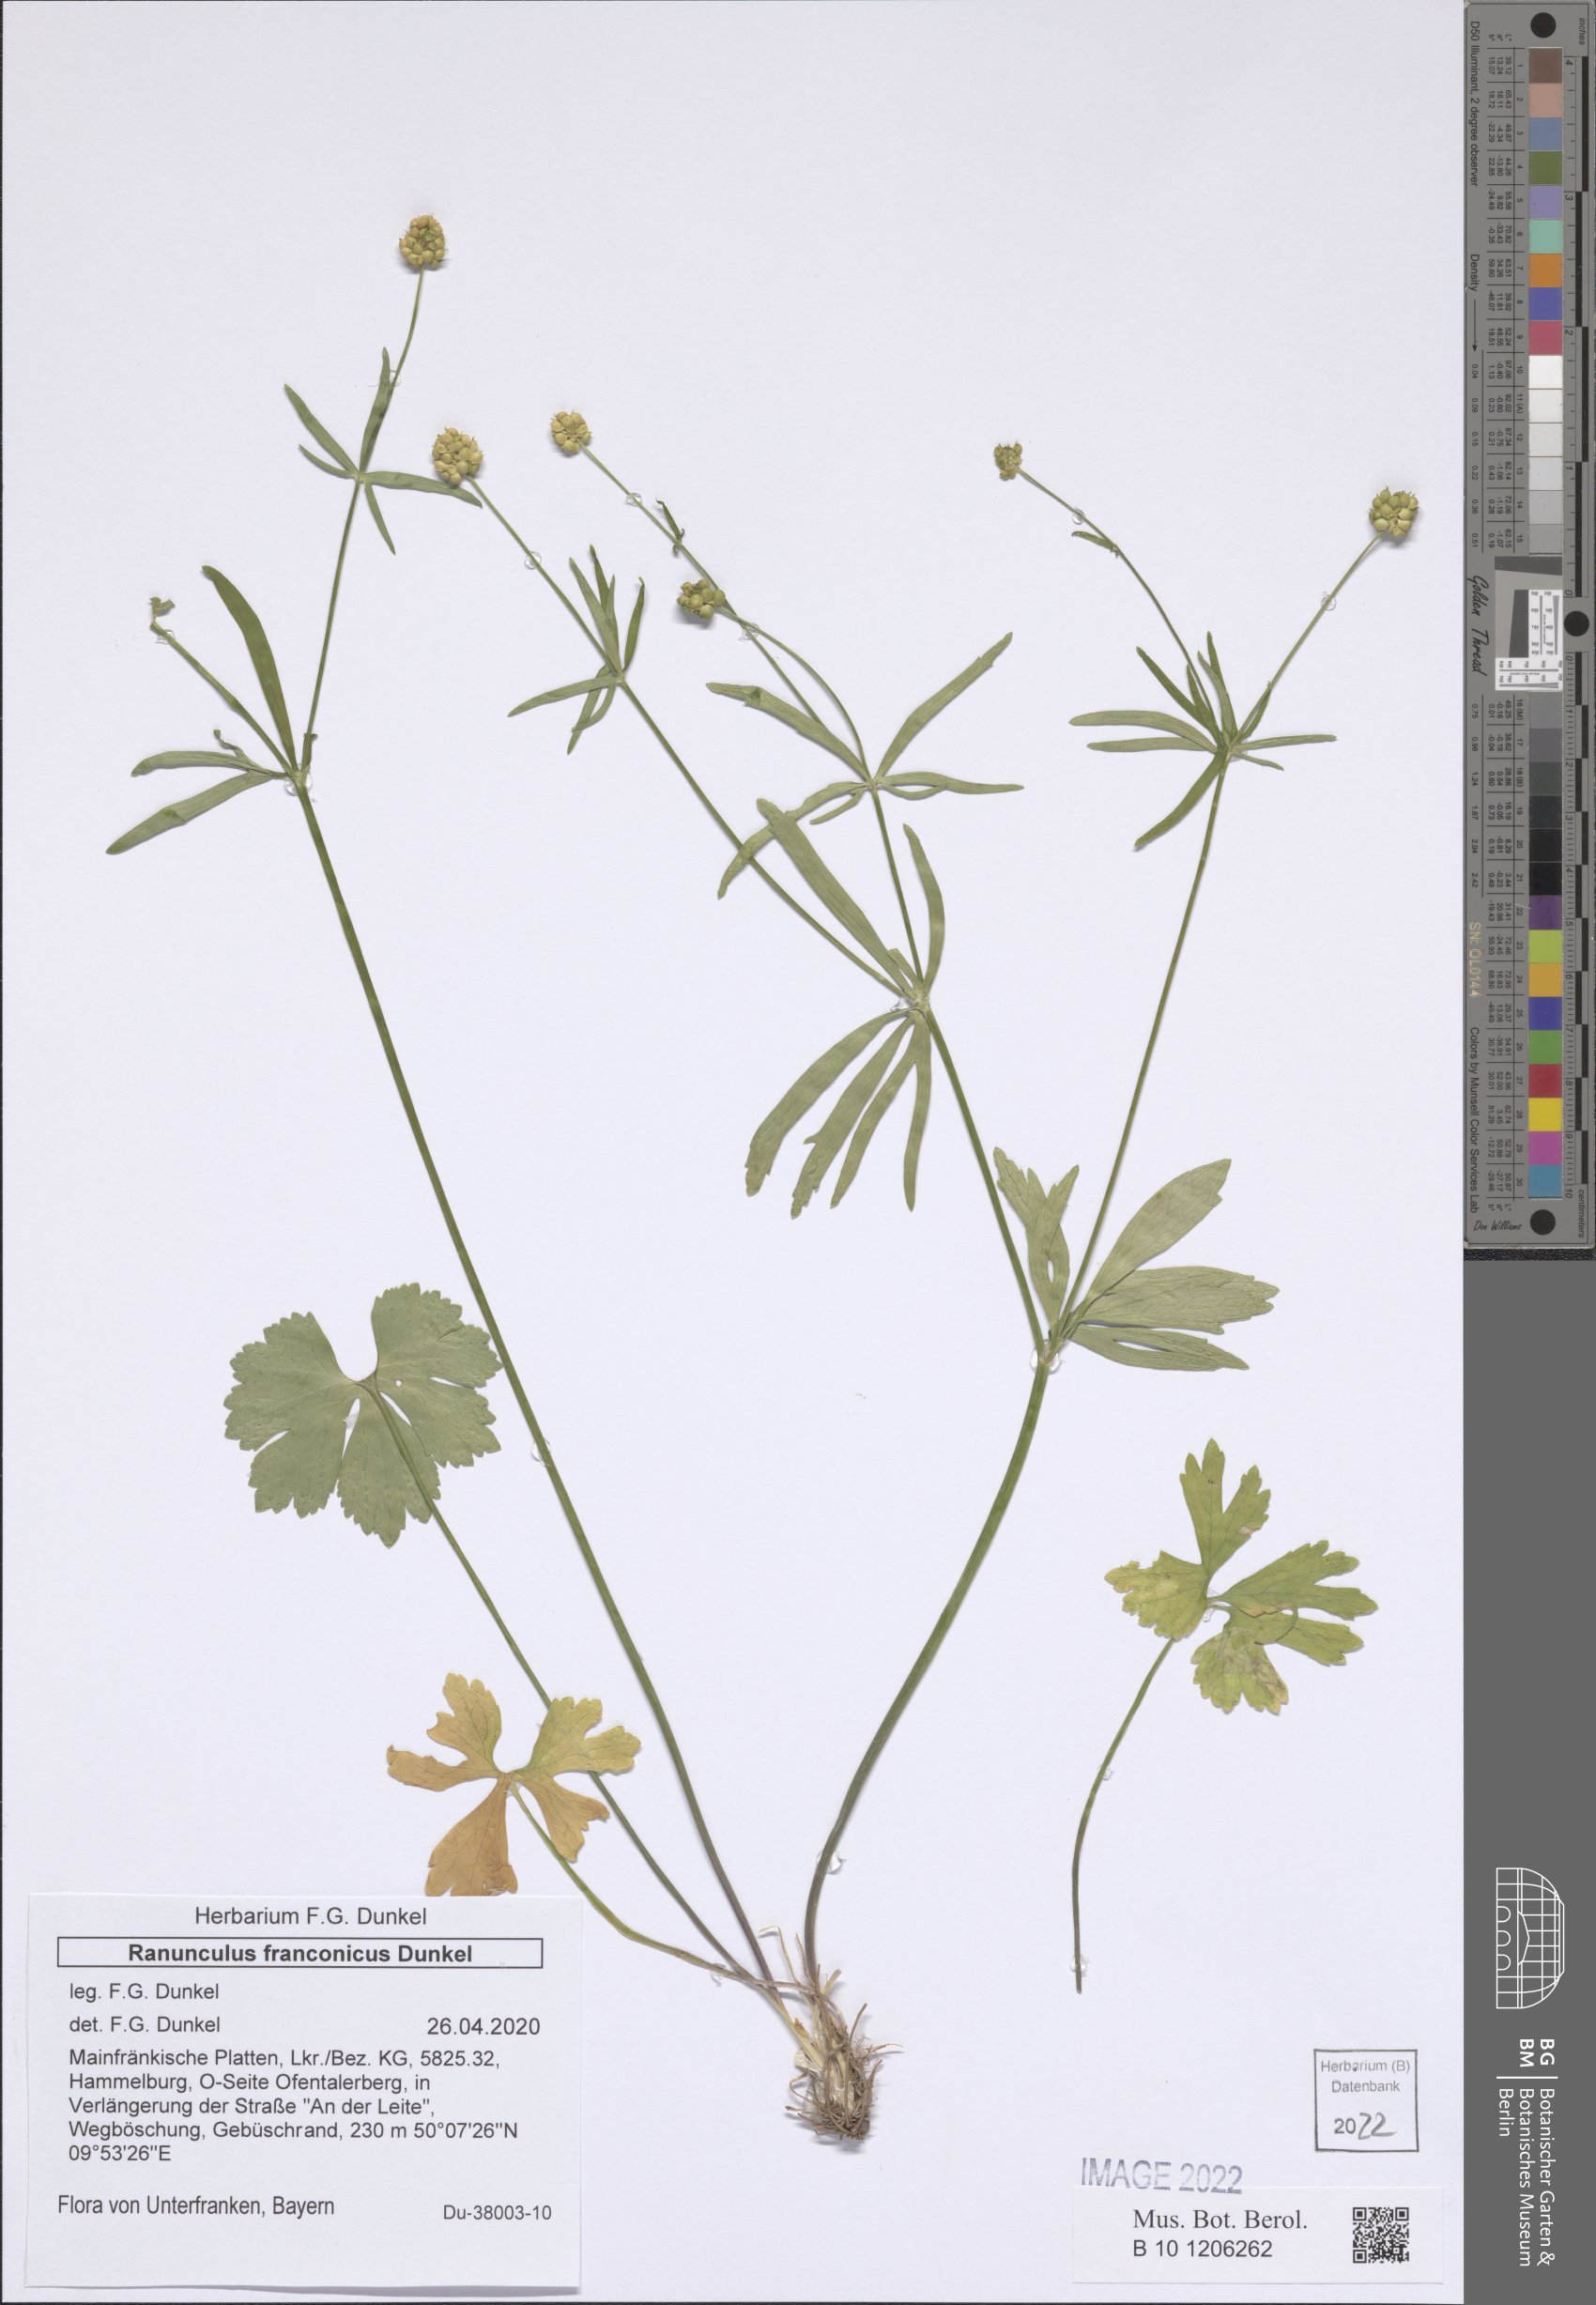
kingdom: Plantae
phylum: Tracheophyta
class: Magnoliopsida
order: Ranunculales
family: Ranunculaceae
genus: Ranunculus
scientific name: Ranunculus franconicus
